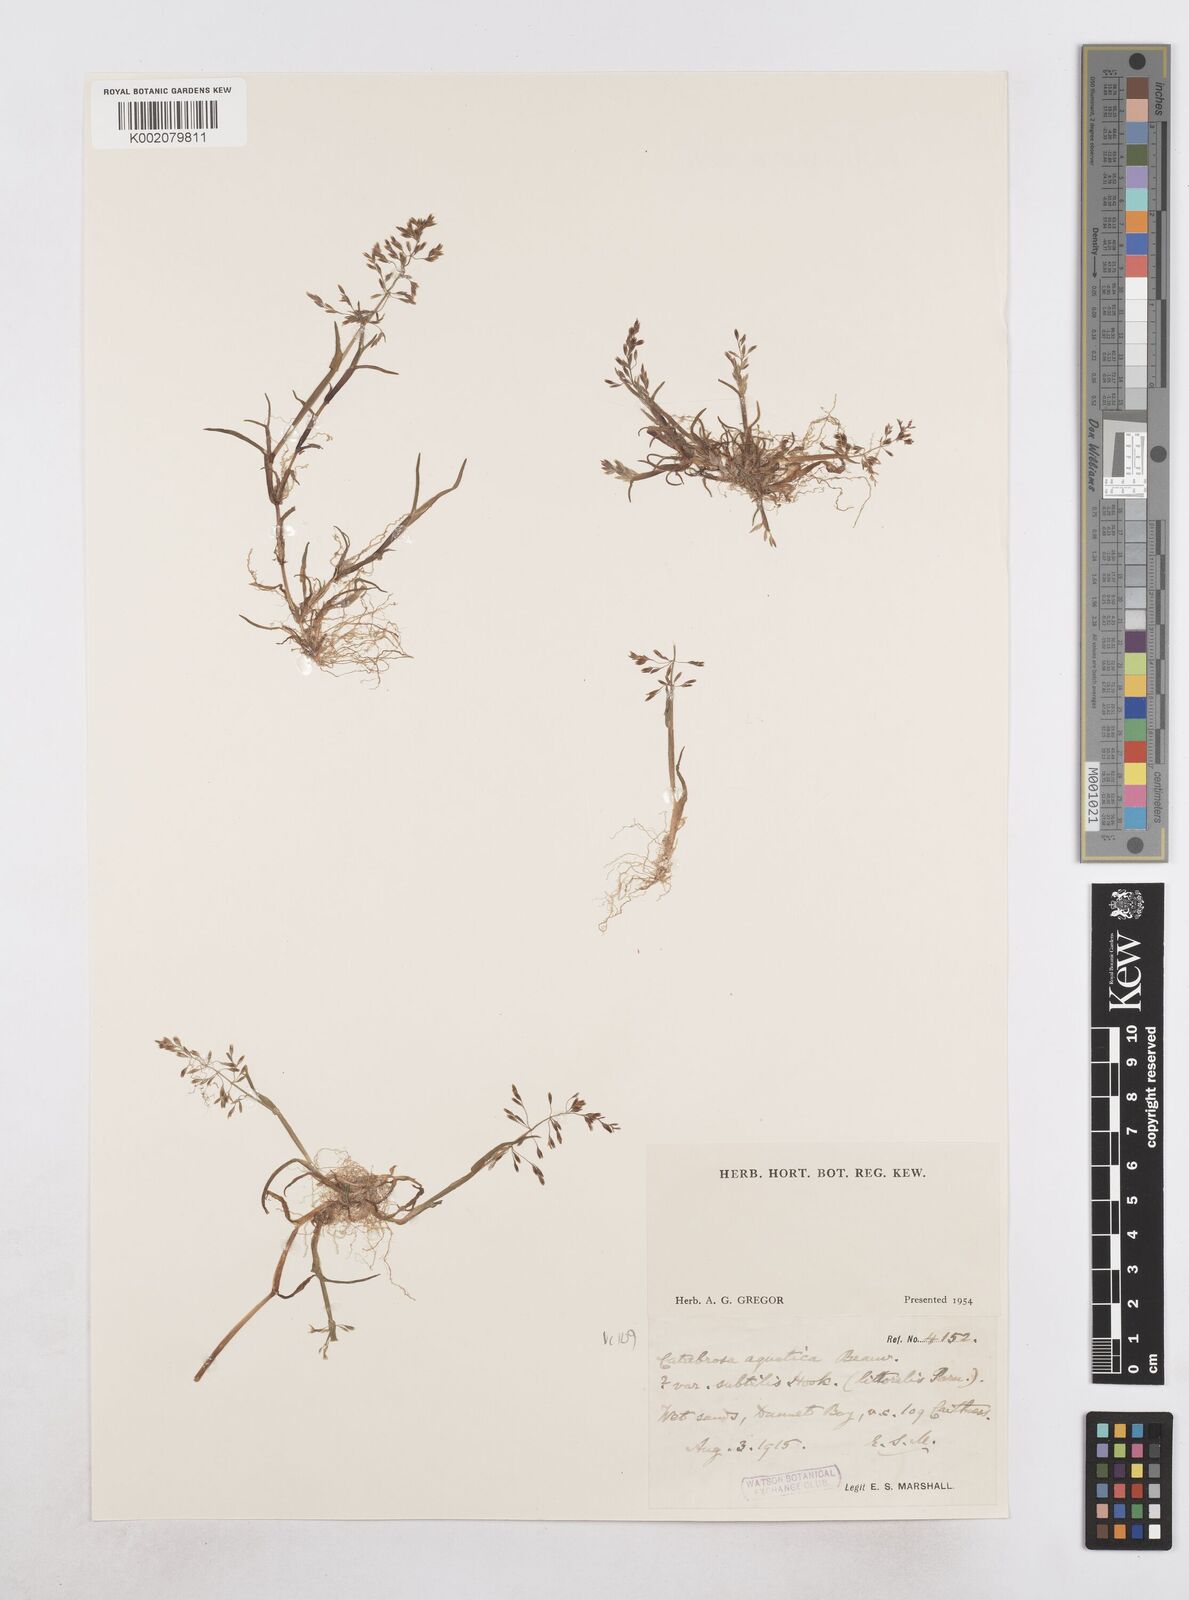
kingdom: Plantae
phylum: Tracheophyta
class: Liliopsida
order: Poales
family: Poaceae
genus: Catabrosa
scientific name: Catabrosa aquatica
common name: Whorl-grass
